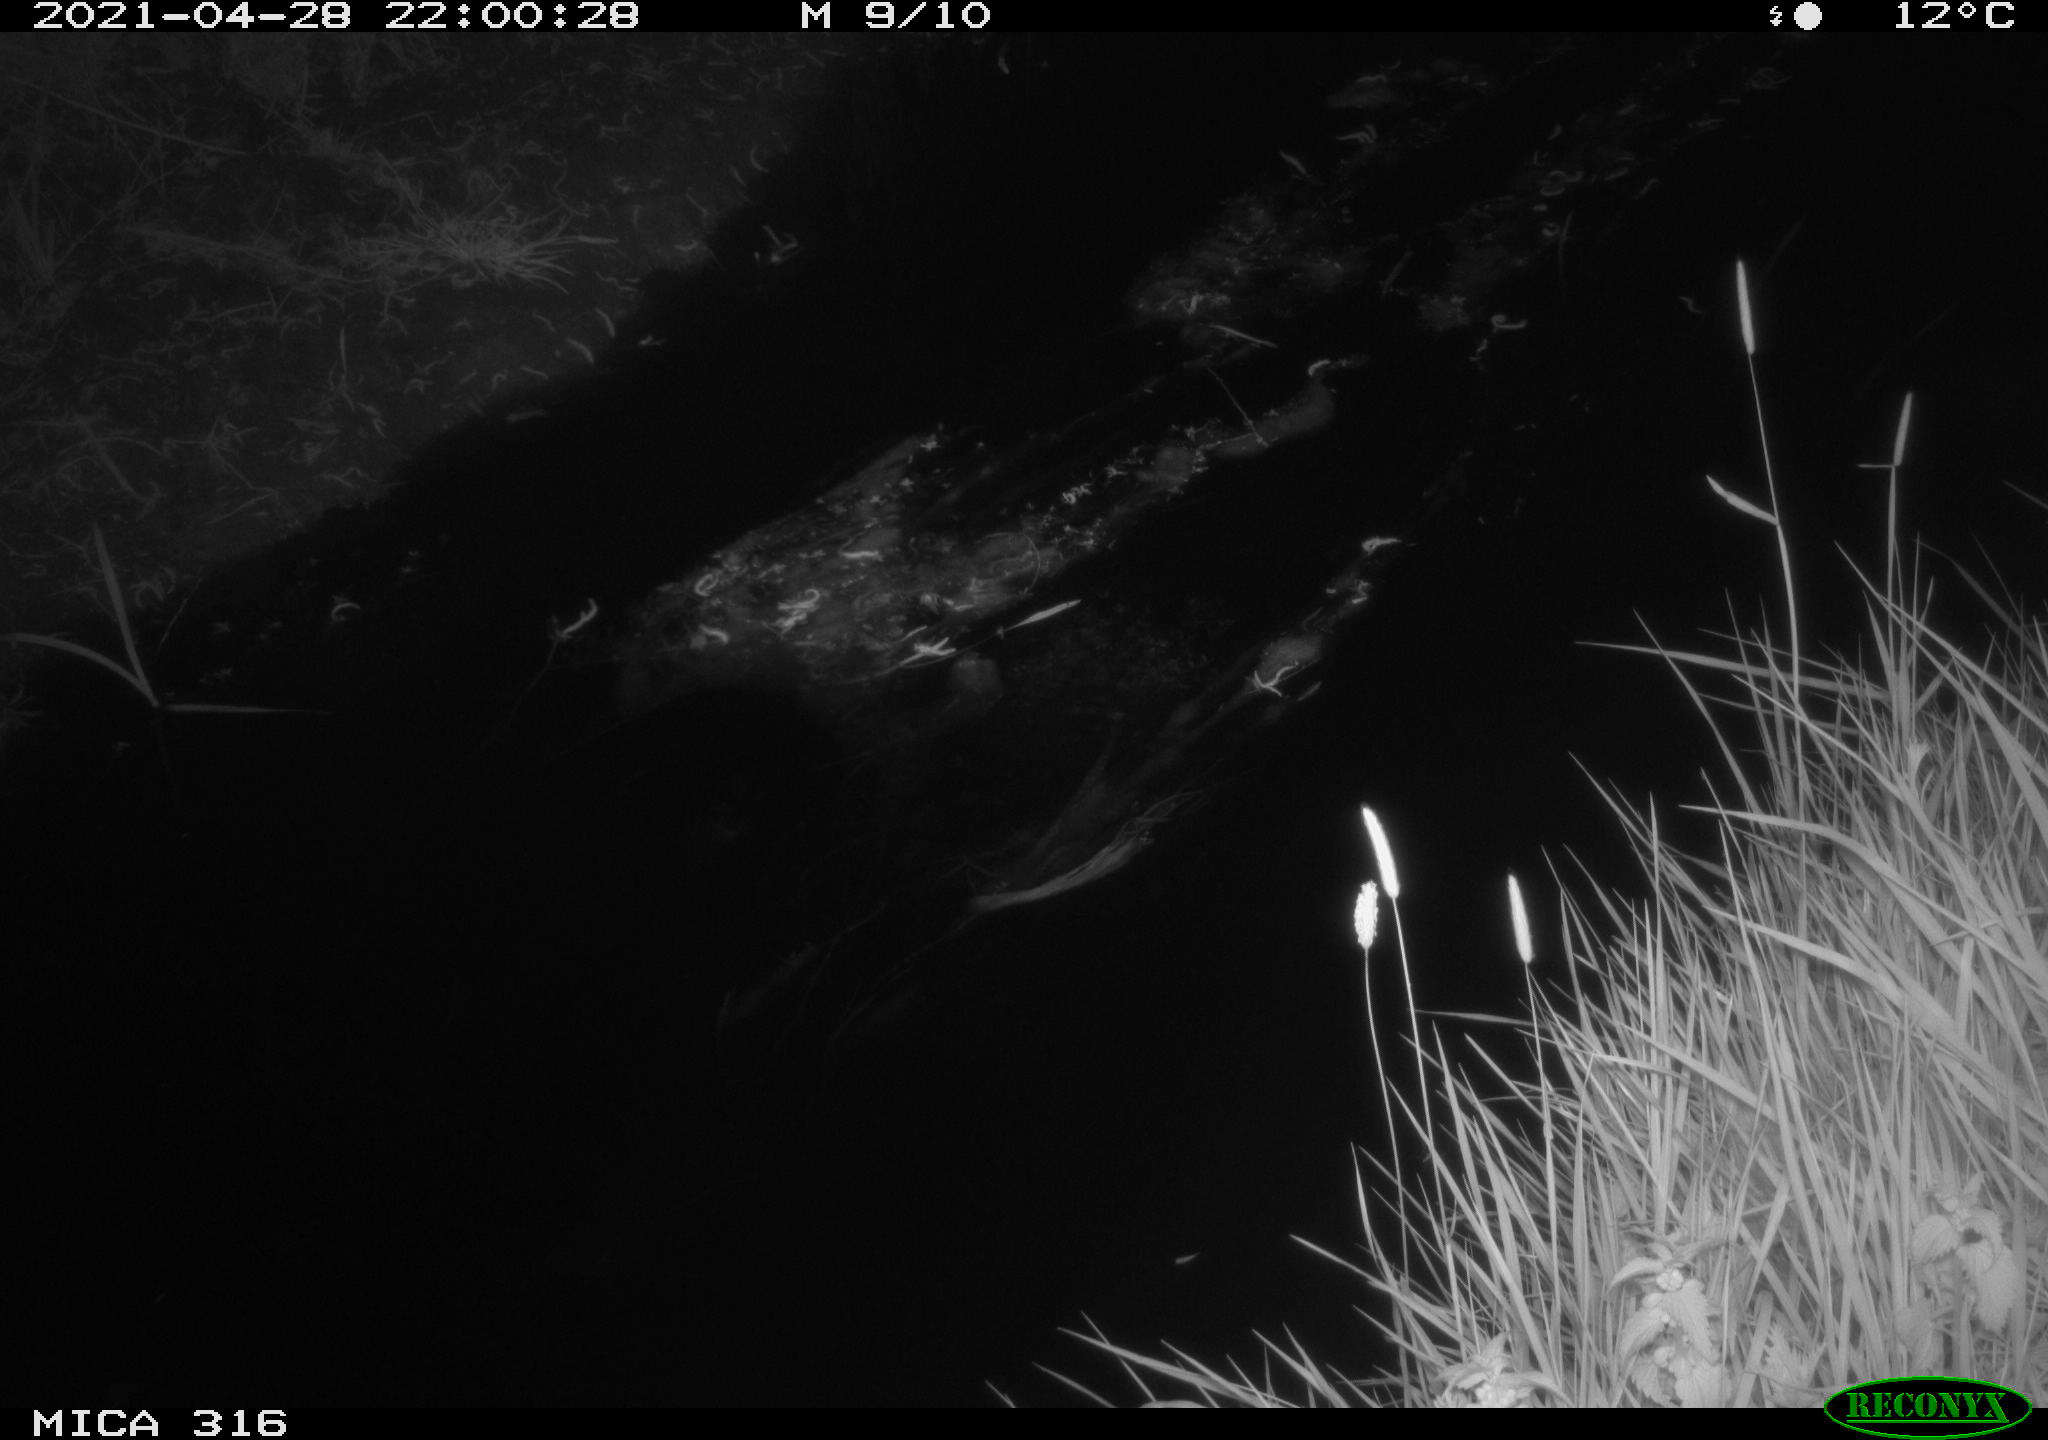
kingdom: Animalia
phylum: Chordata
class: Aves
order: Anseriformes
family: Anatidae
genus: Anas
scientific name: Anas platyrhynchos
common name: Mallard
